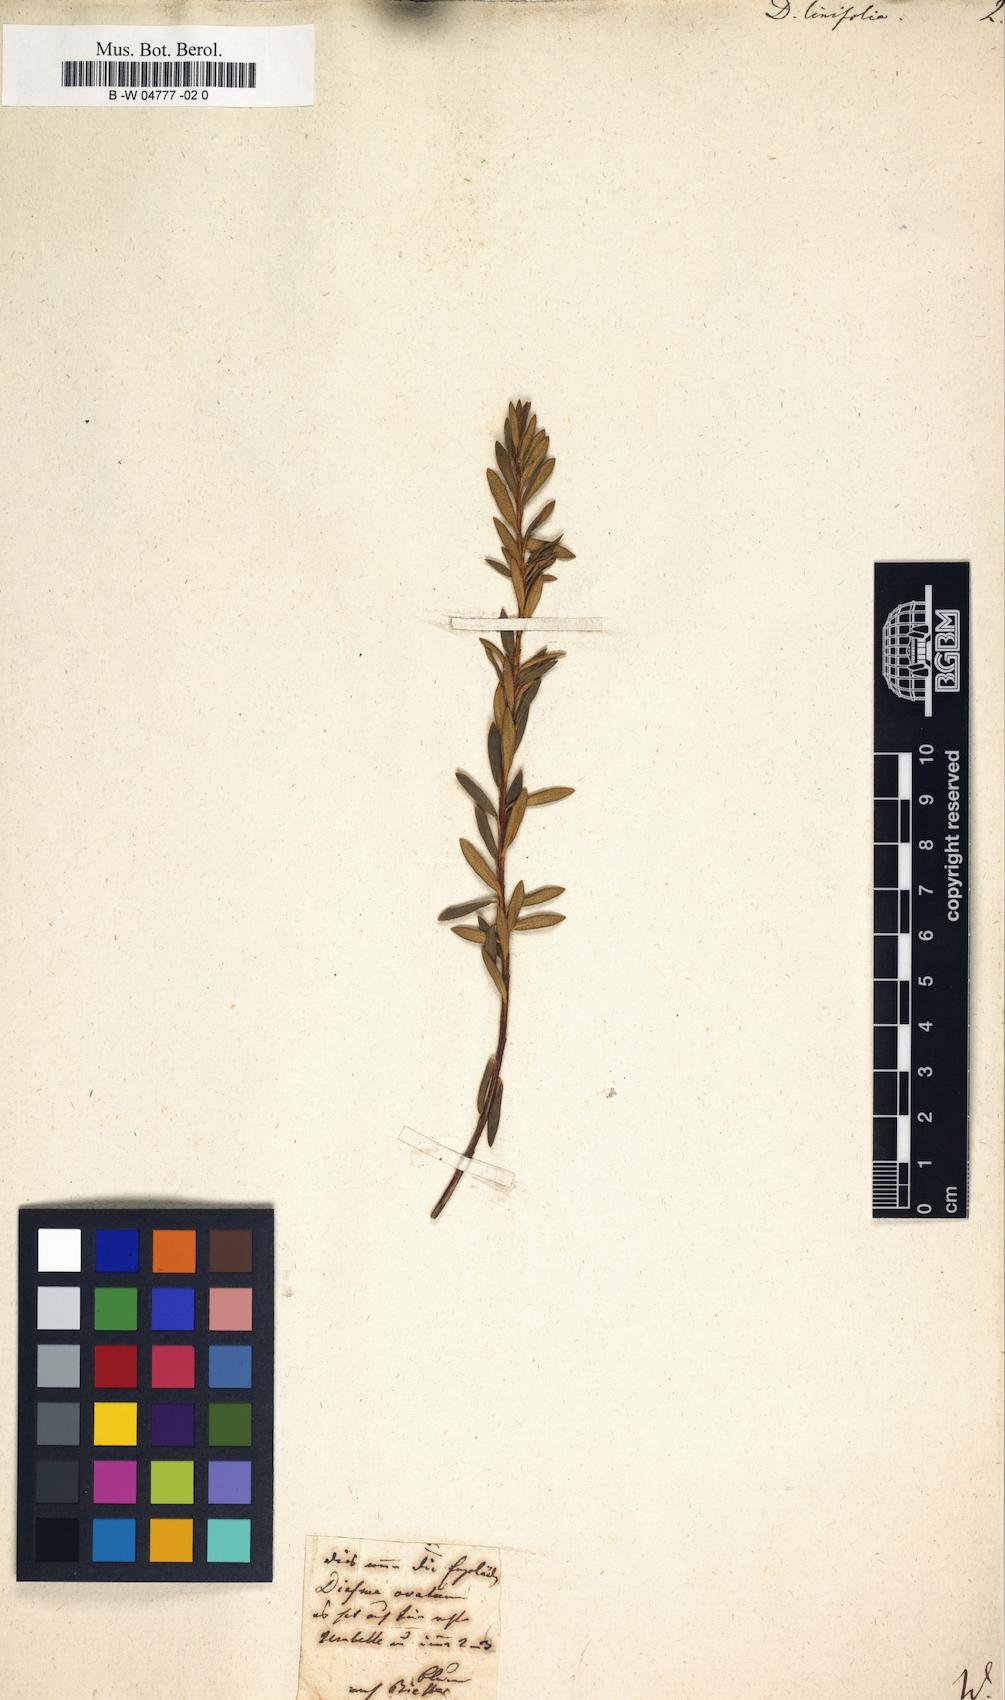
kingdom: Plantae
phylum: Tracheophyta
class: Magnoliopsida
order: Sapindales
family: Rutaceae
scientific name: Rutaceae
